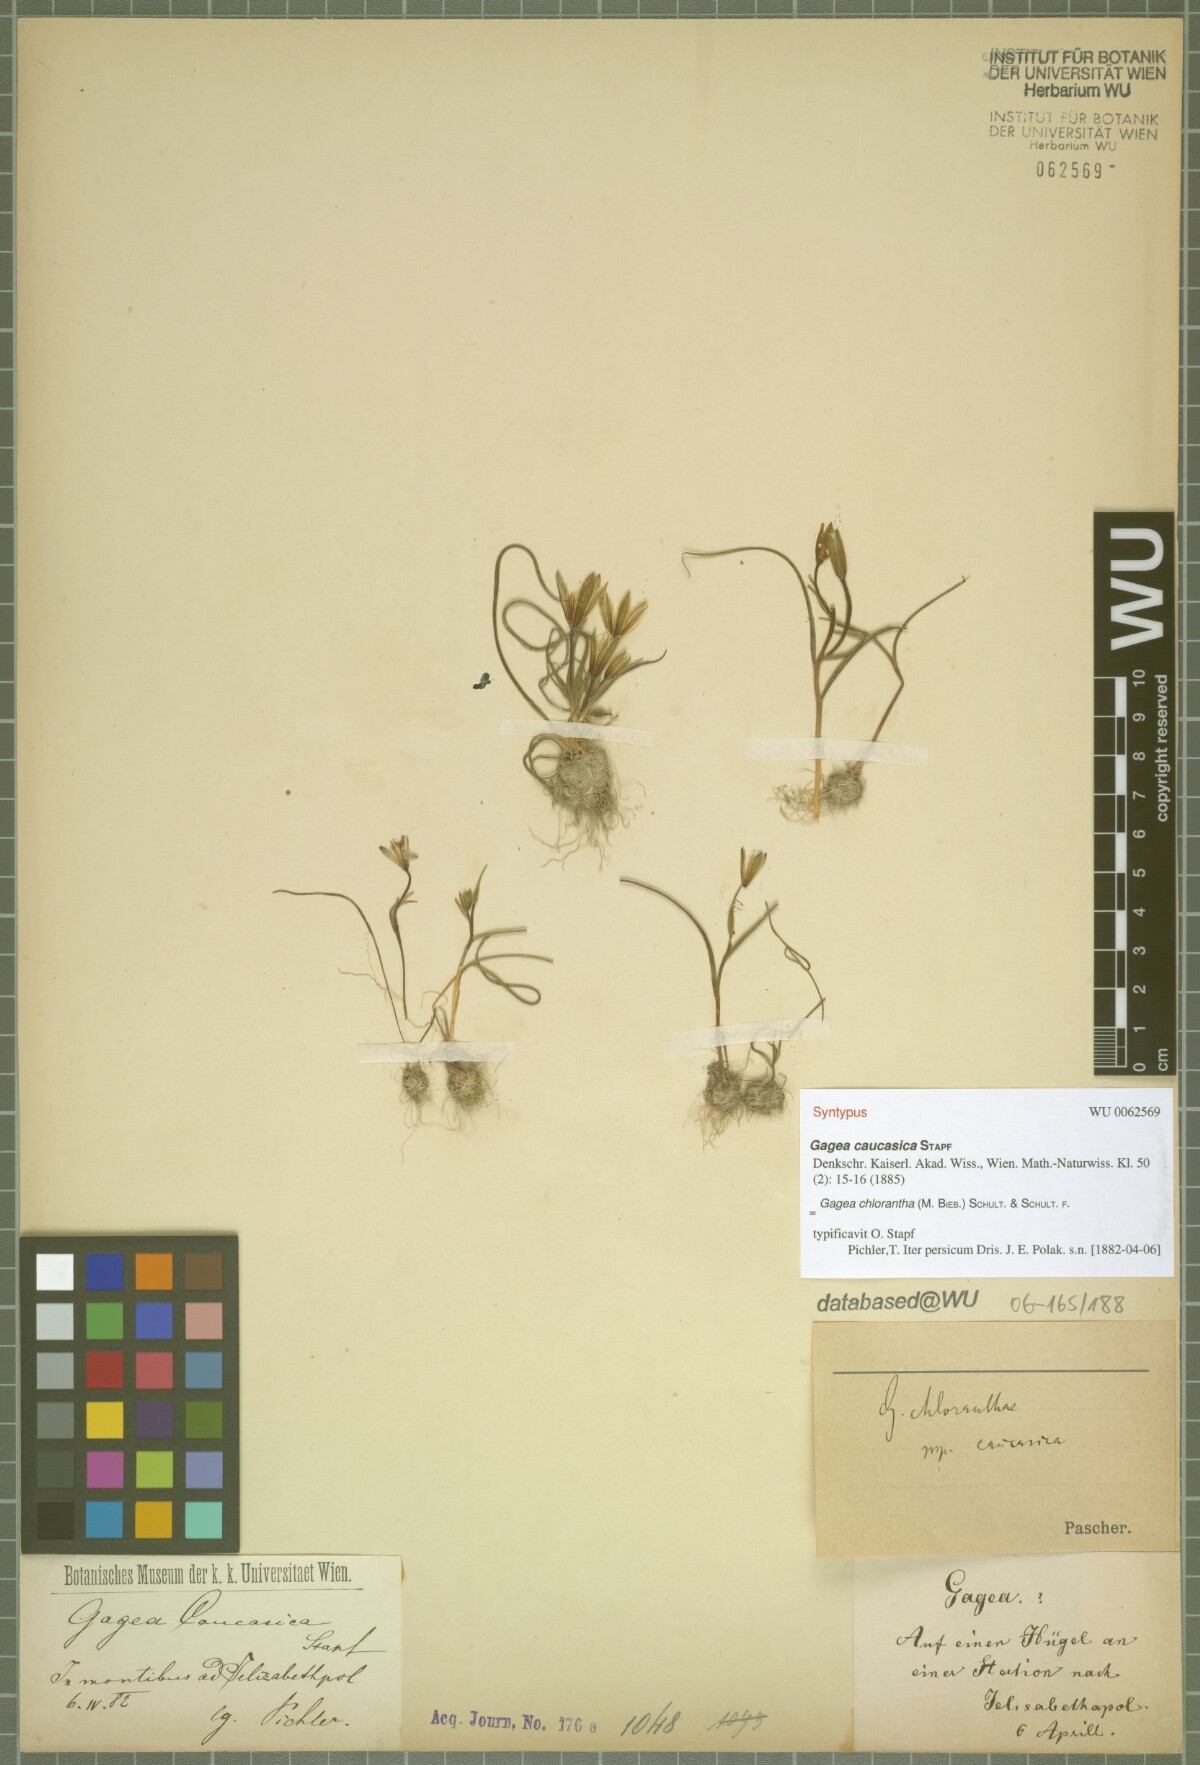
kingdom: Plantae
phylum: Tracheophyta
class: Liliopsida
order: Liliales
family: Liliaceae
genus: Gagea
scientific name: Gagea chlorantha
